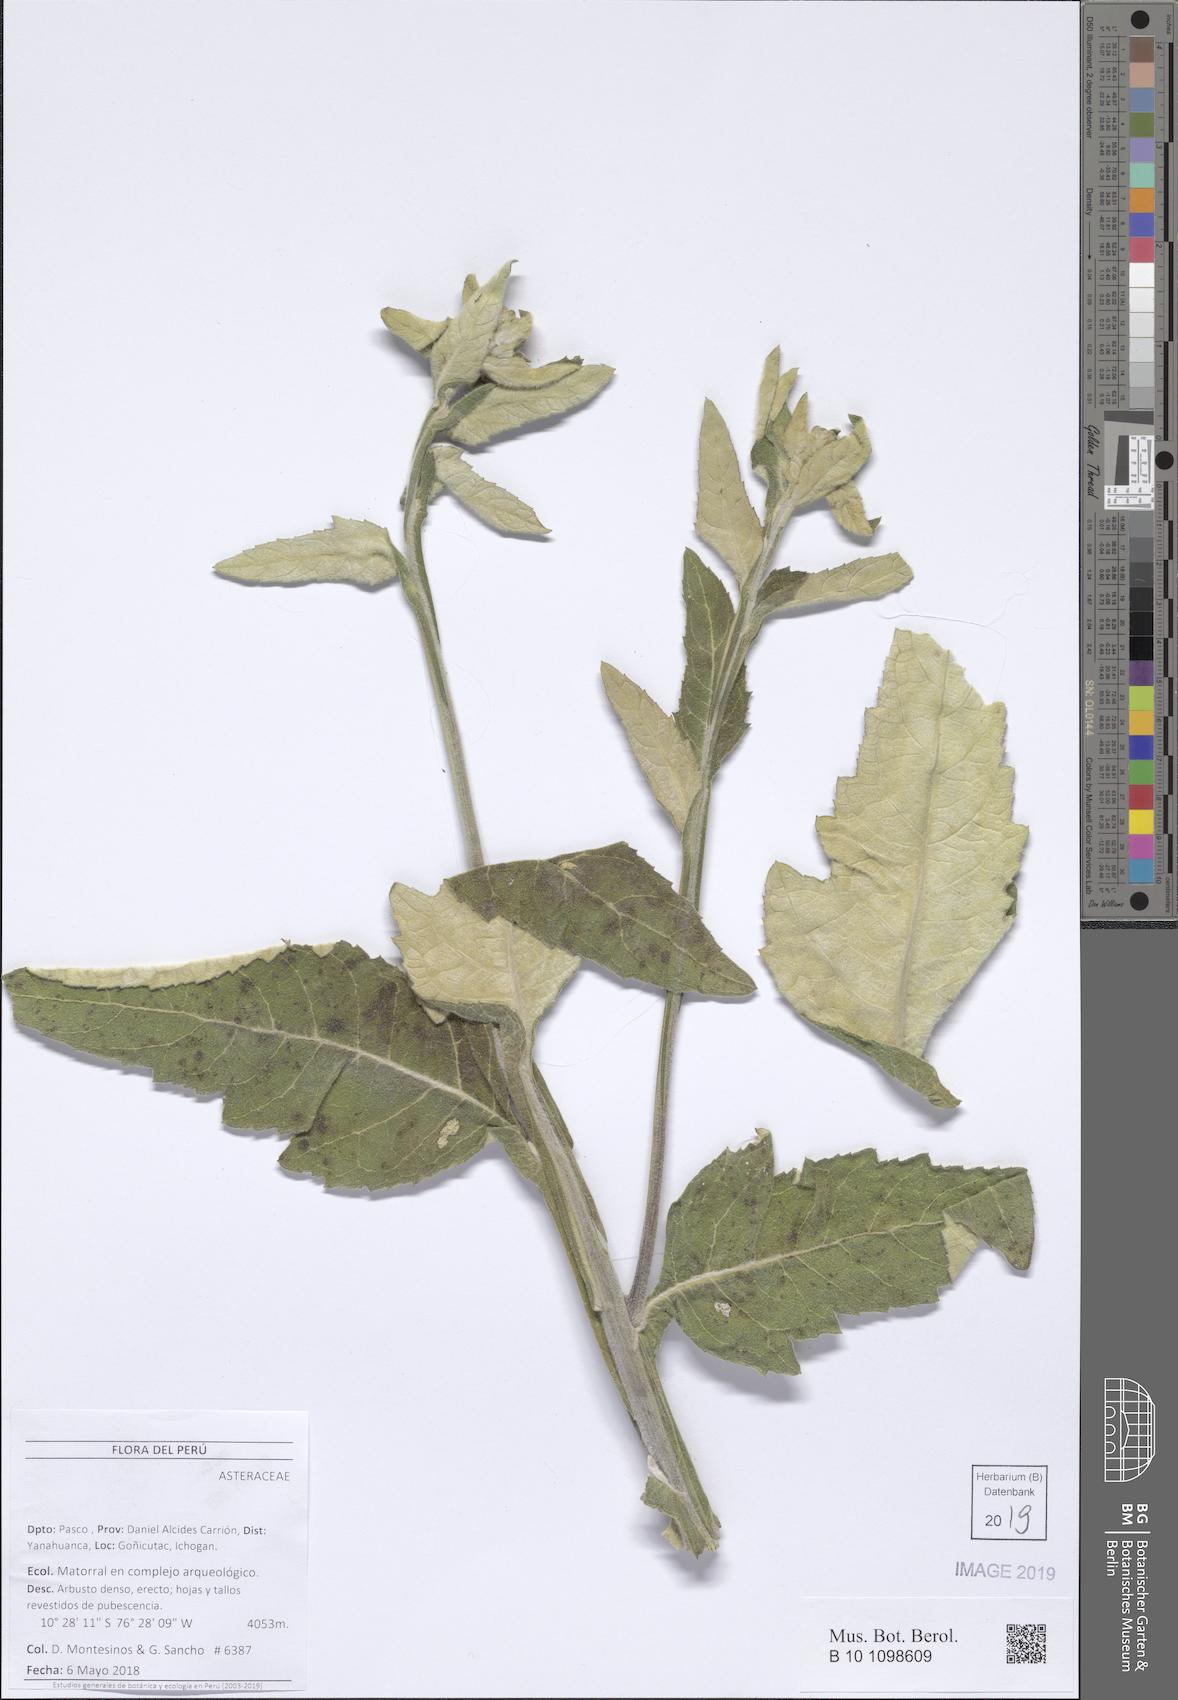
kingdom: Plantae
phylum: Tracheophyta
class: Magnoliopsida
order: Asterales
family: Asteraceae
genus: Nordenstamia
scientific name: Nordenstamia
